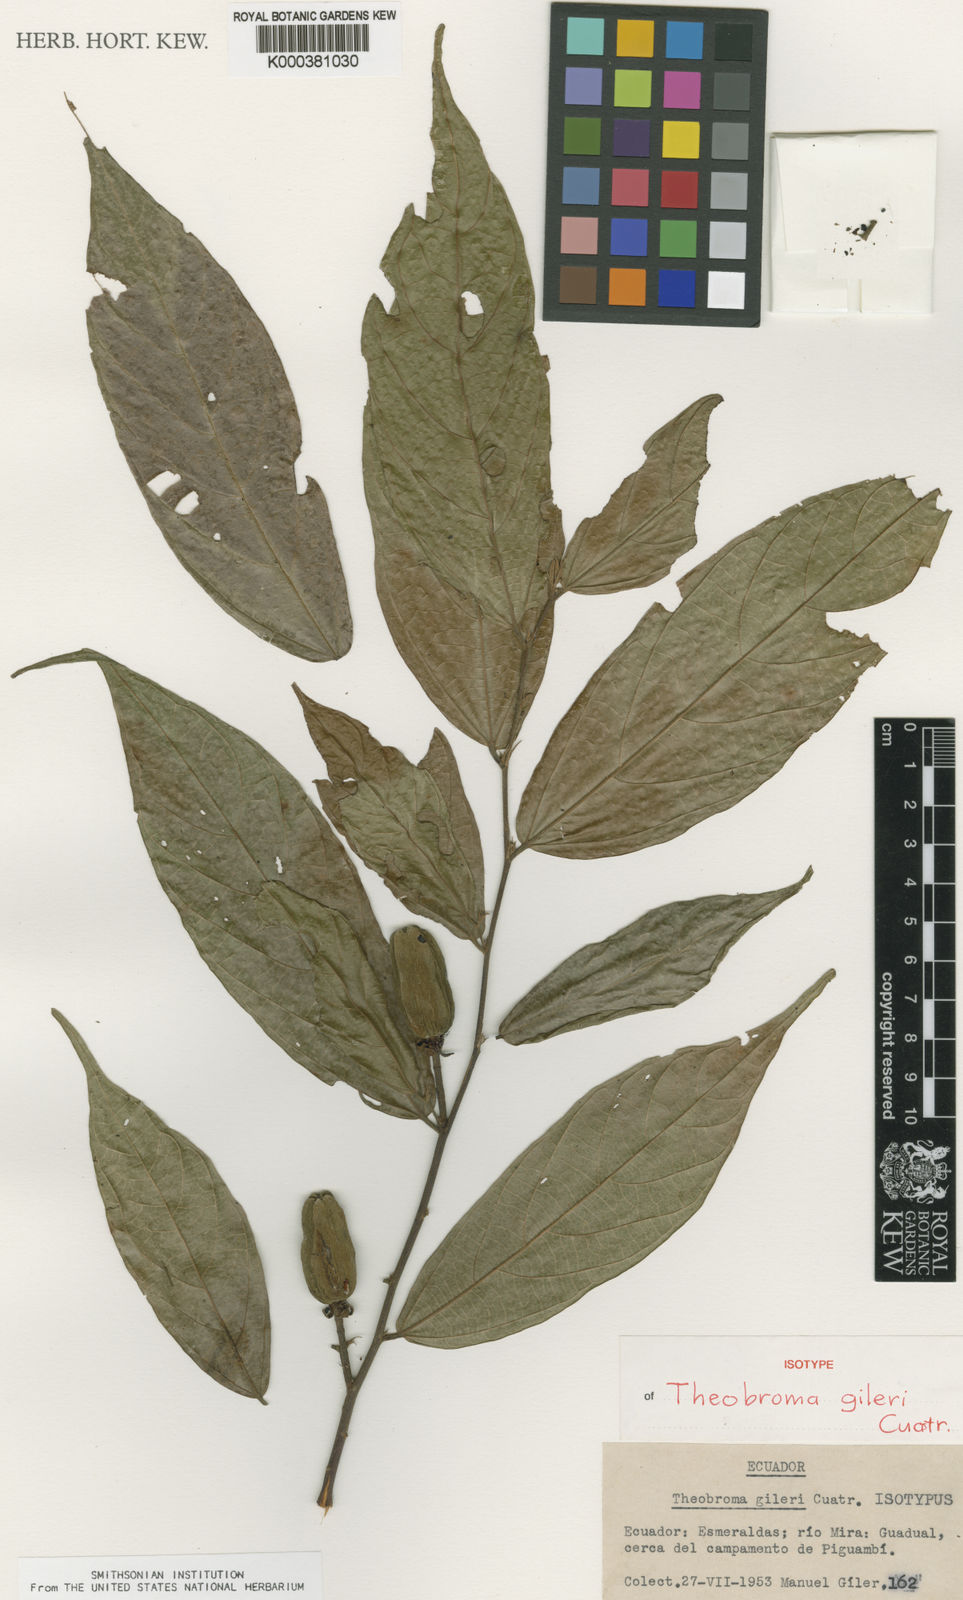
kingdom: Plantae
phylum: Tracheophyta
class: Magnoliopsida
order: Malvales
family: Malvaceae
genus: Theobroma
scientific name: Theobroma gileri
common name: Mountain cocoa
